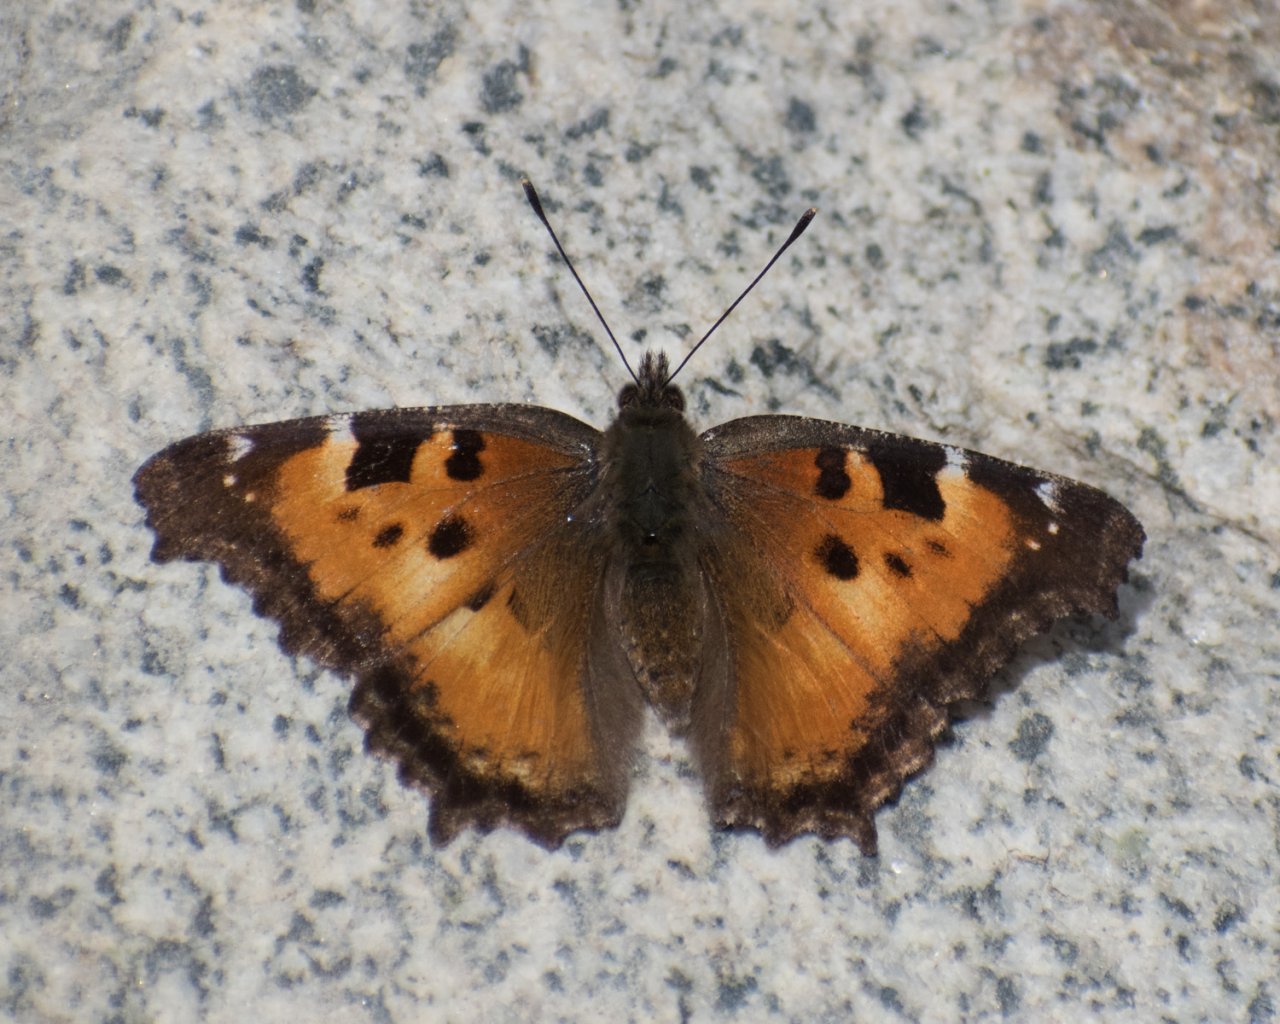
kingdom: Animalia
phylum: Arthropoda
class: Insecta
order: Lepidoptera
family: Nymphalidae
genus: Nymphalis
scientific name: Nymphalis californica
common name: California Tortoiseshell
